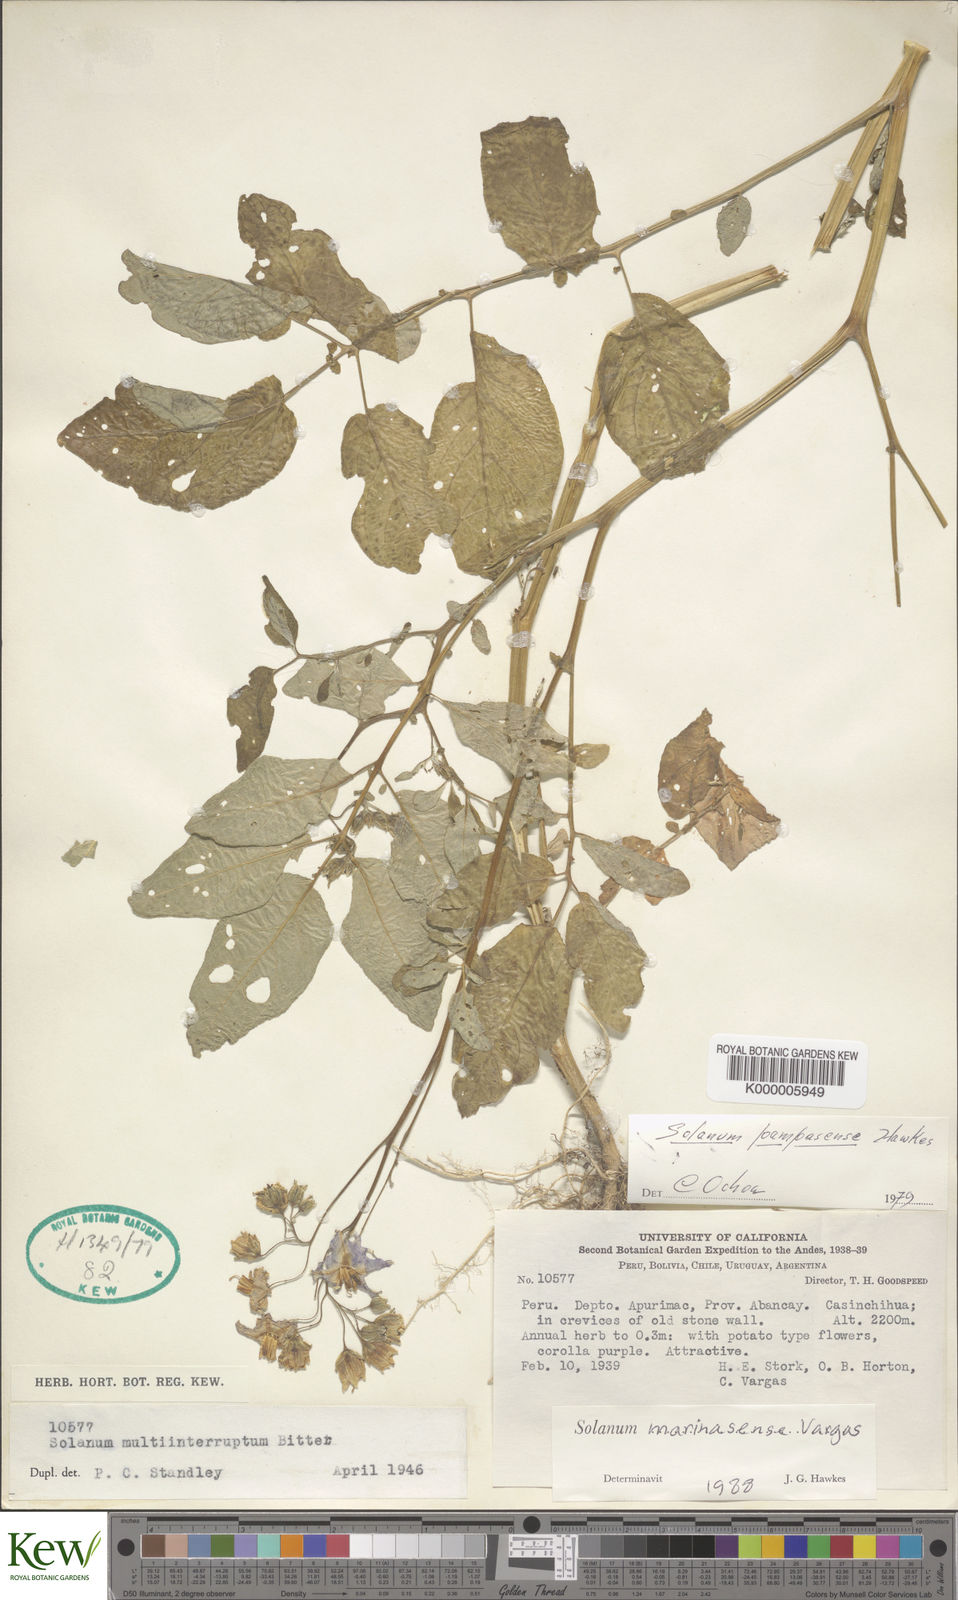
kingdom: Plantae
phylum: Tracheophyta
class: Magnoliopsida
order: Solanales
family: Solanaceae
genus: Solanum
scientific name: Solanum candolleanum
